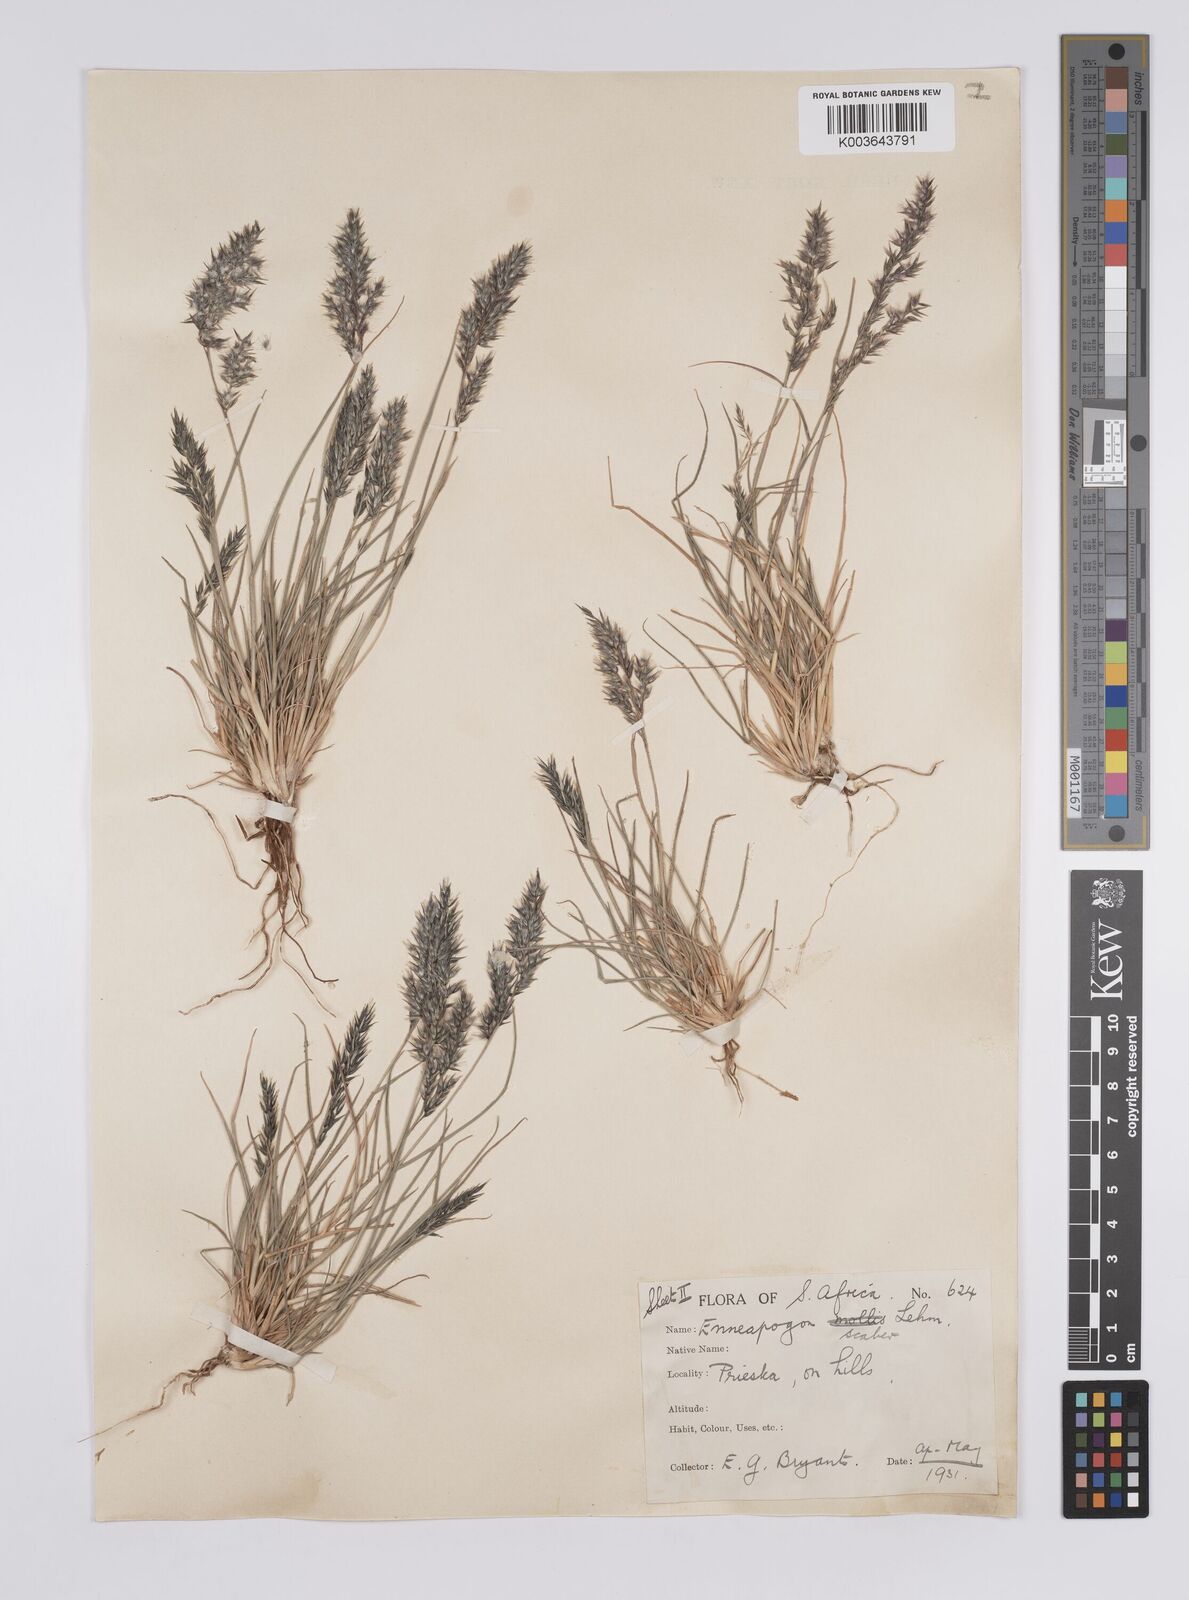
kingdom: Plantae
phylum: Tracheophyta
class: Liliopsida
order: Poales
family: Poaceae
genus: Enneapogon
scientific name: Enneapogon scaber
